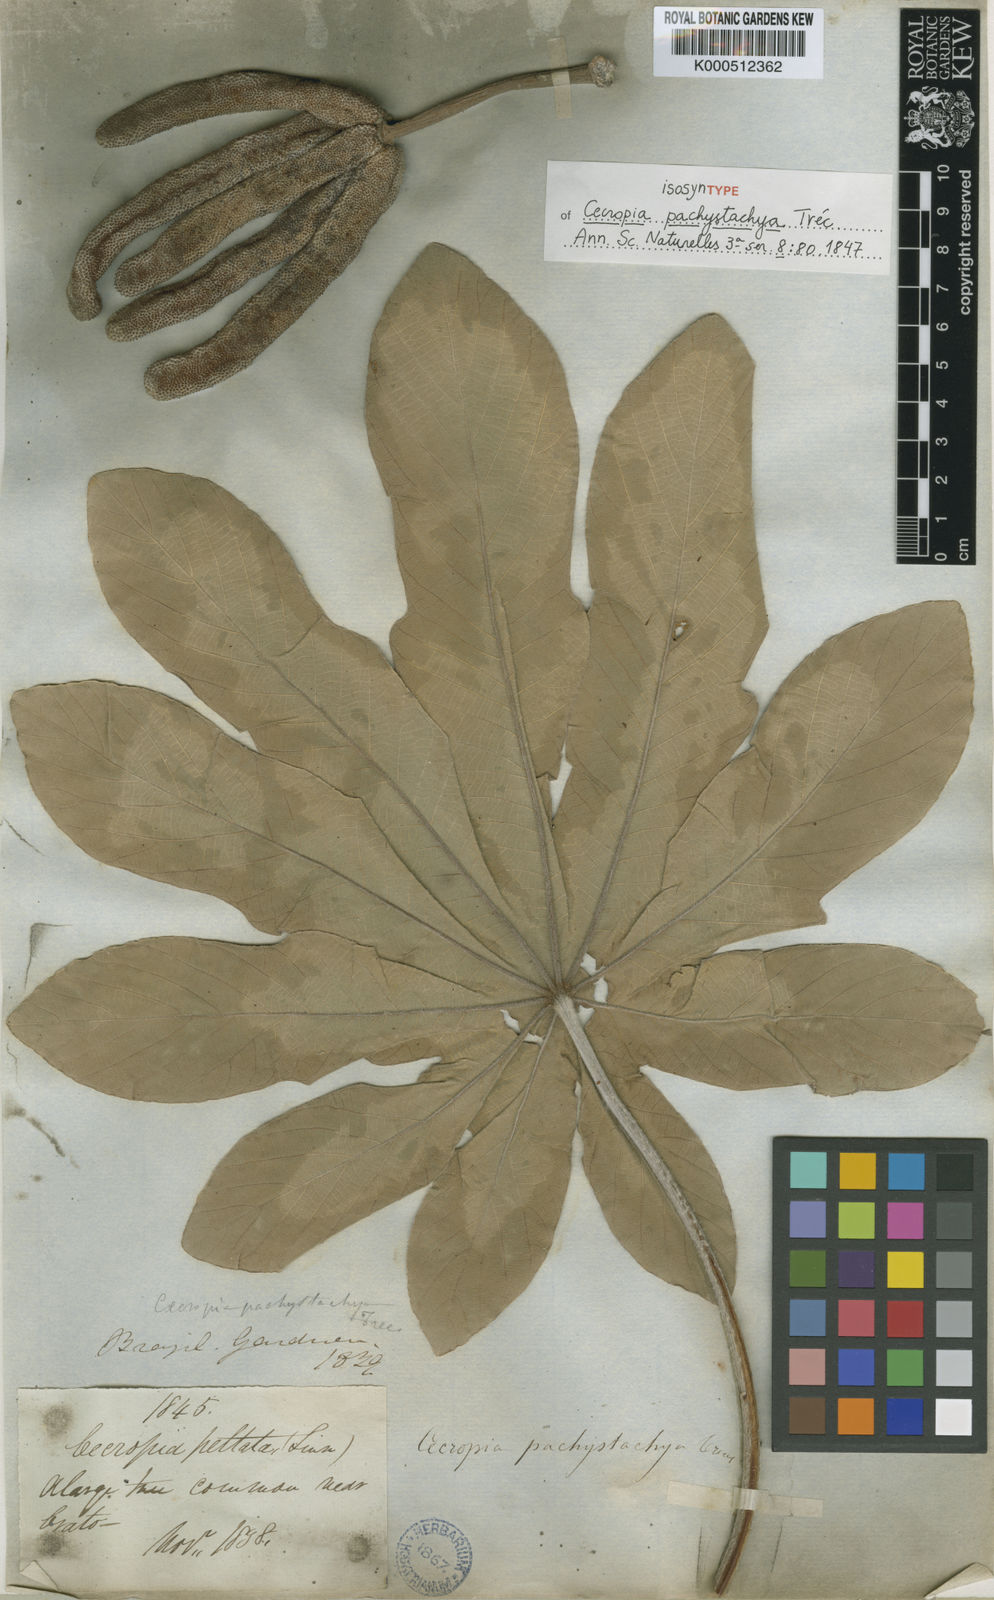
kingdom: Plantae
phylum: Tracheophyta
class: Magnoliopsida
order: Rosales
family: Urticaceae
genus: Cecropia
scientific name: Cecropia
